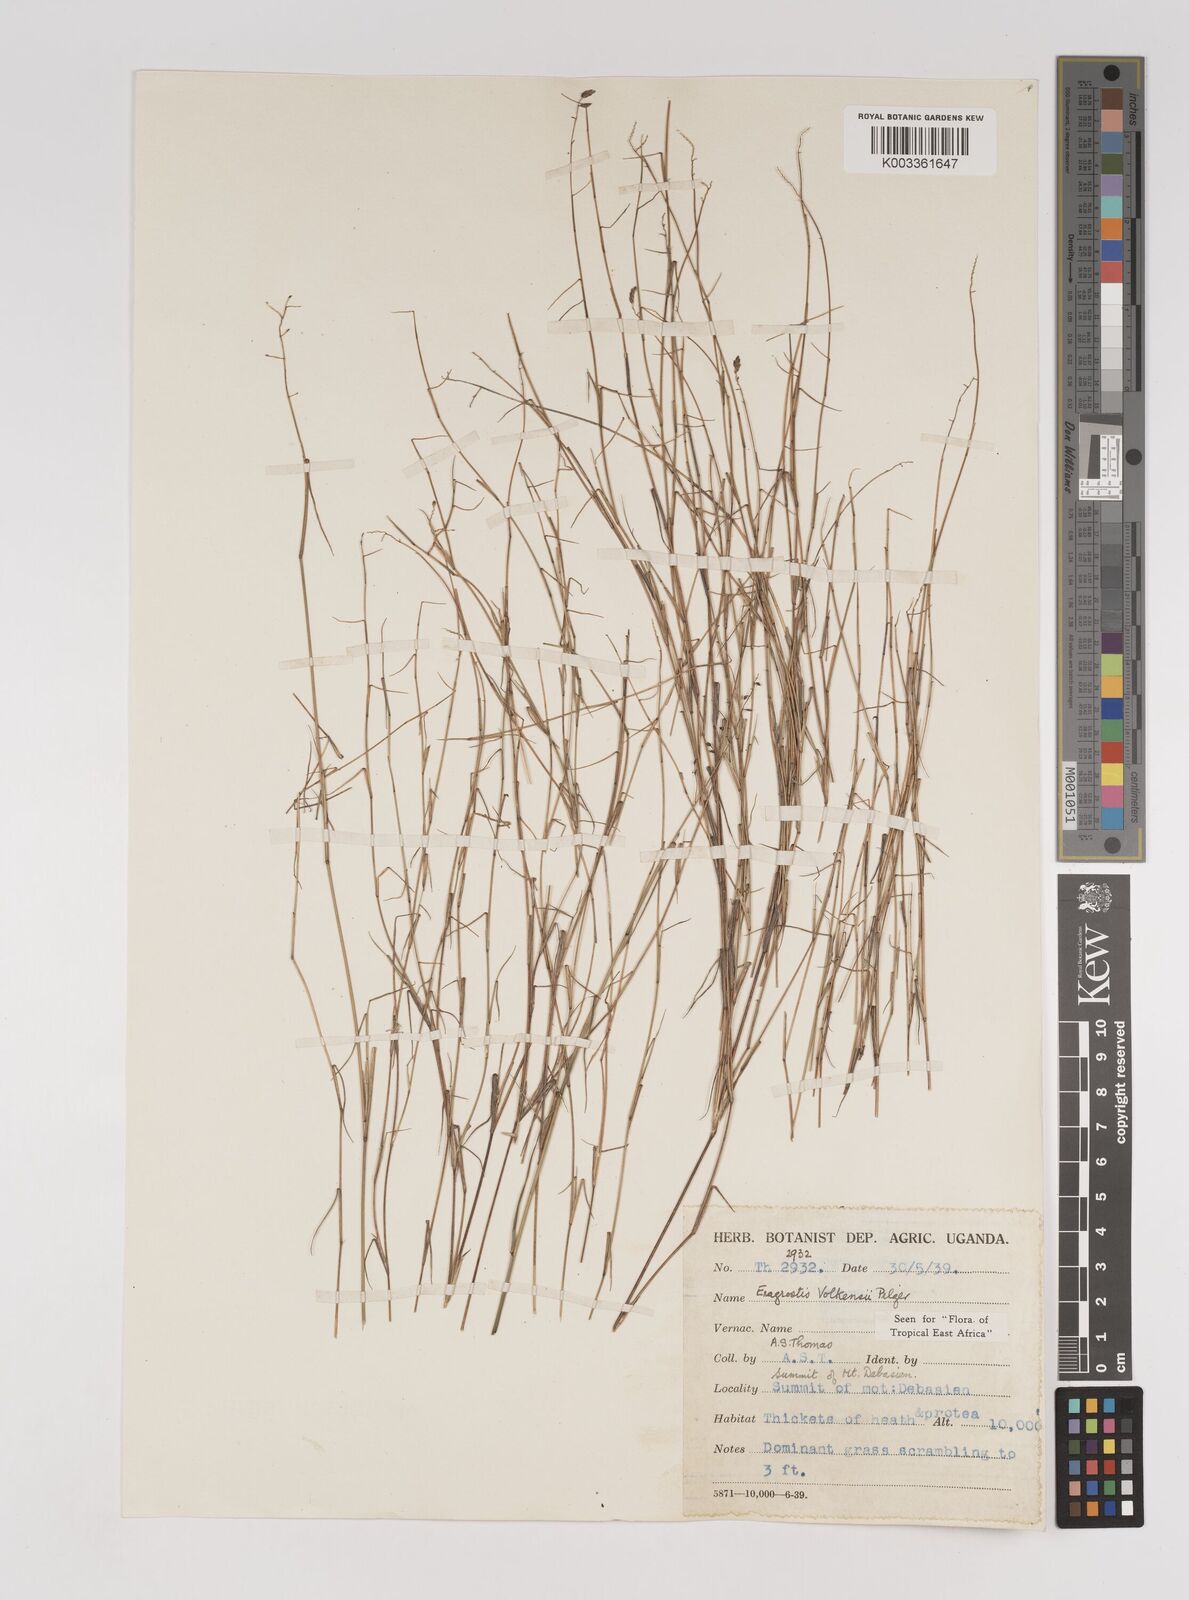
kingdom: Plantae
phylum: Tracheophyta
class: Liliopsida
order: Poales
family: Poaceae
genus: Eragrostis
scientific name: Eragrostis volkensii
